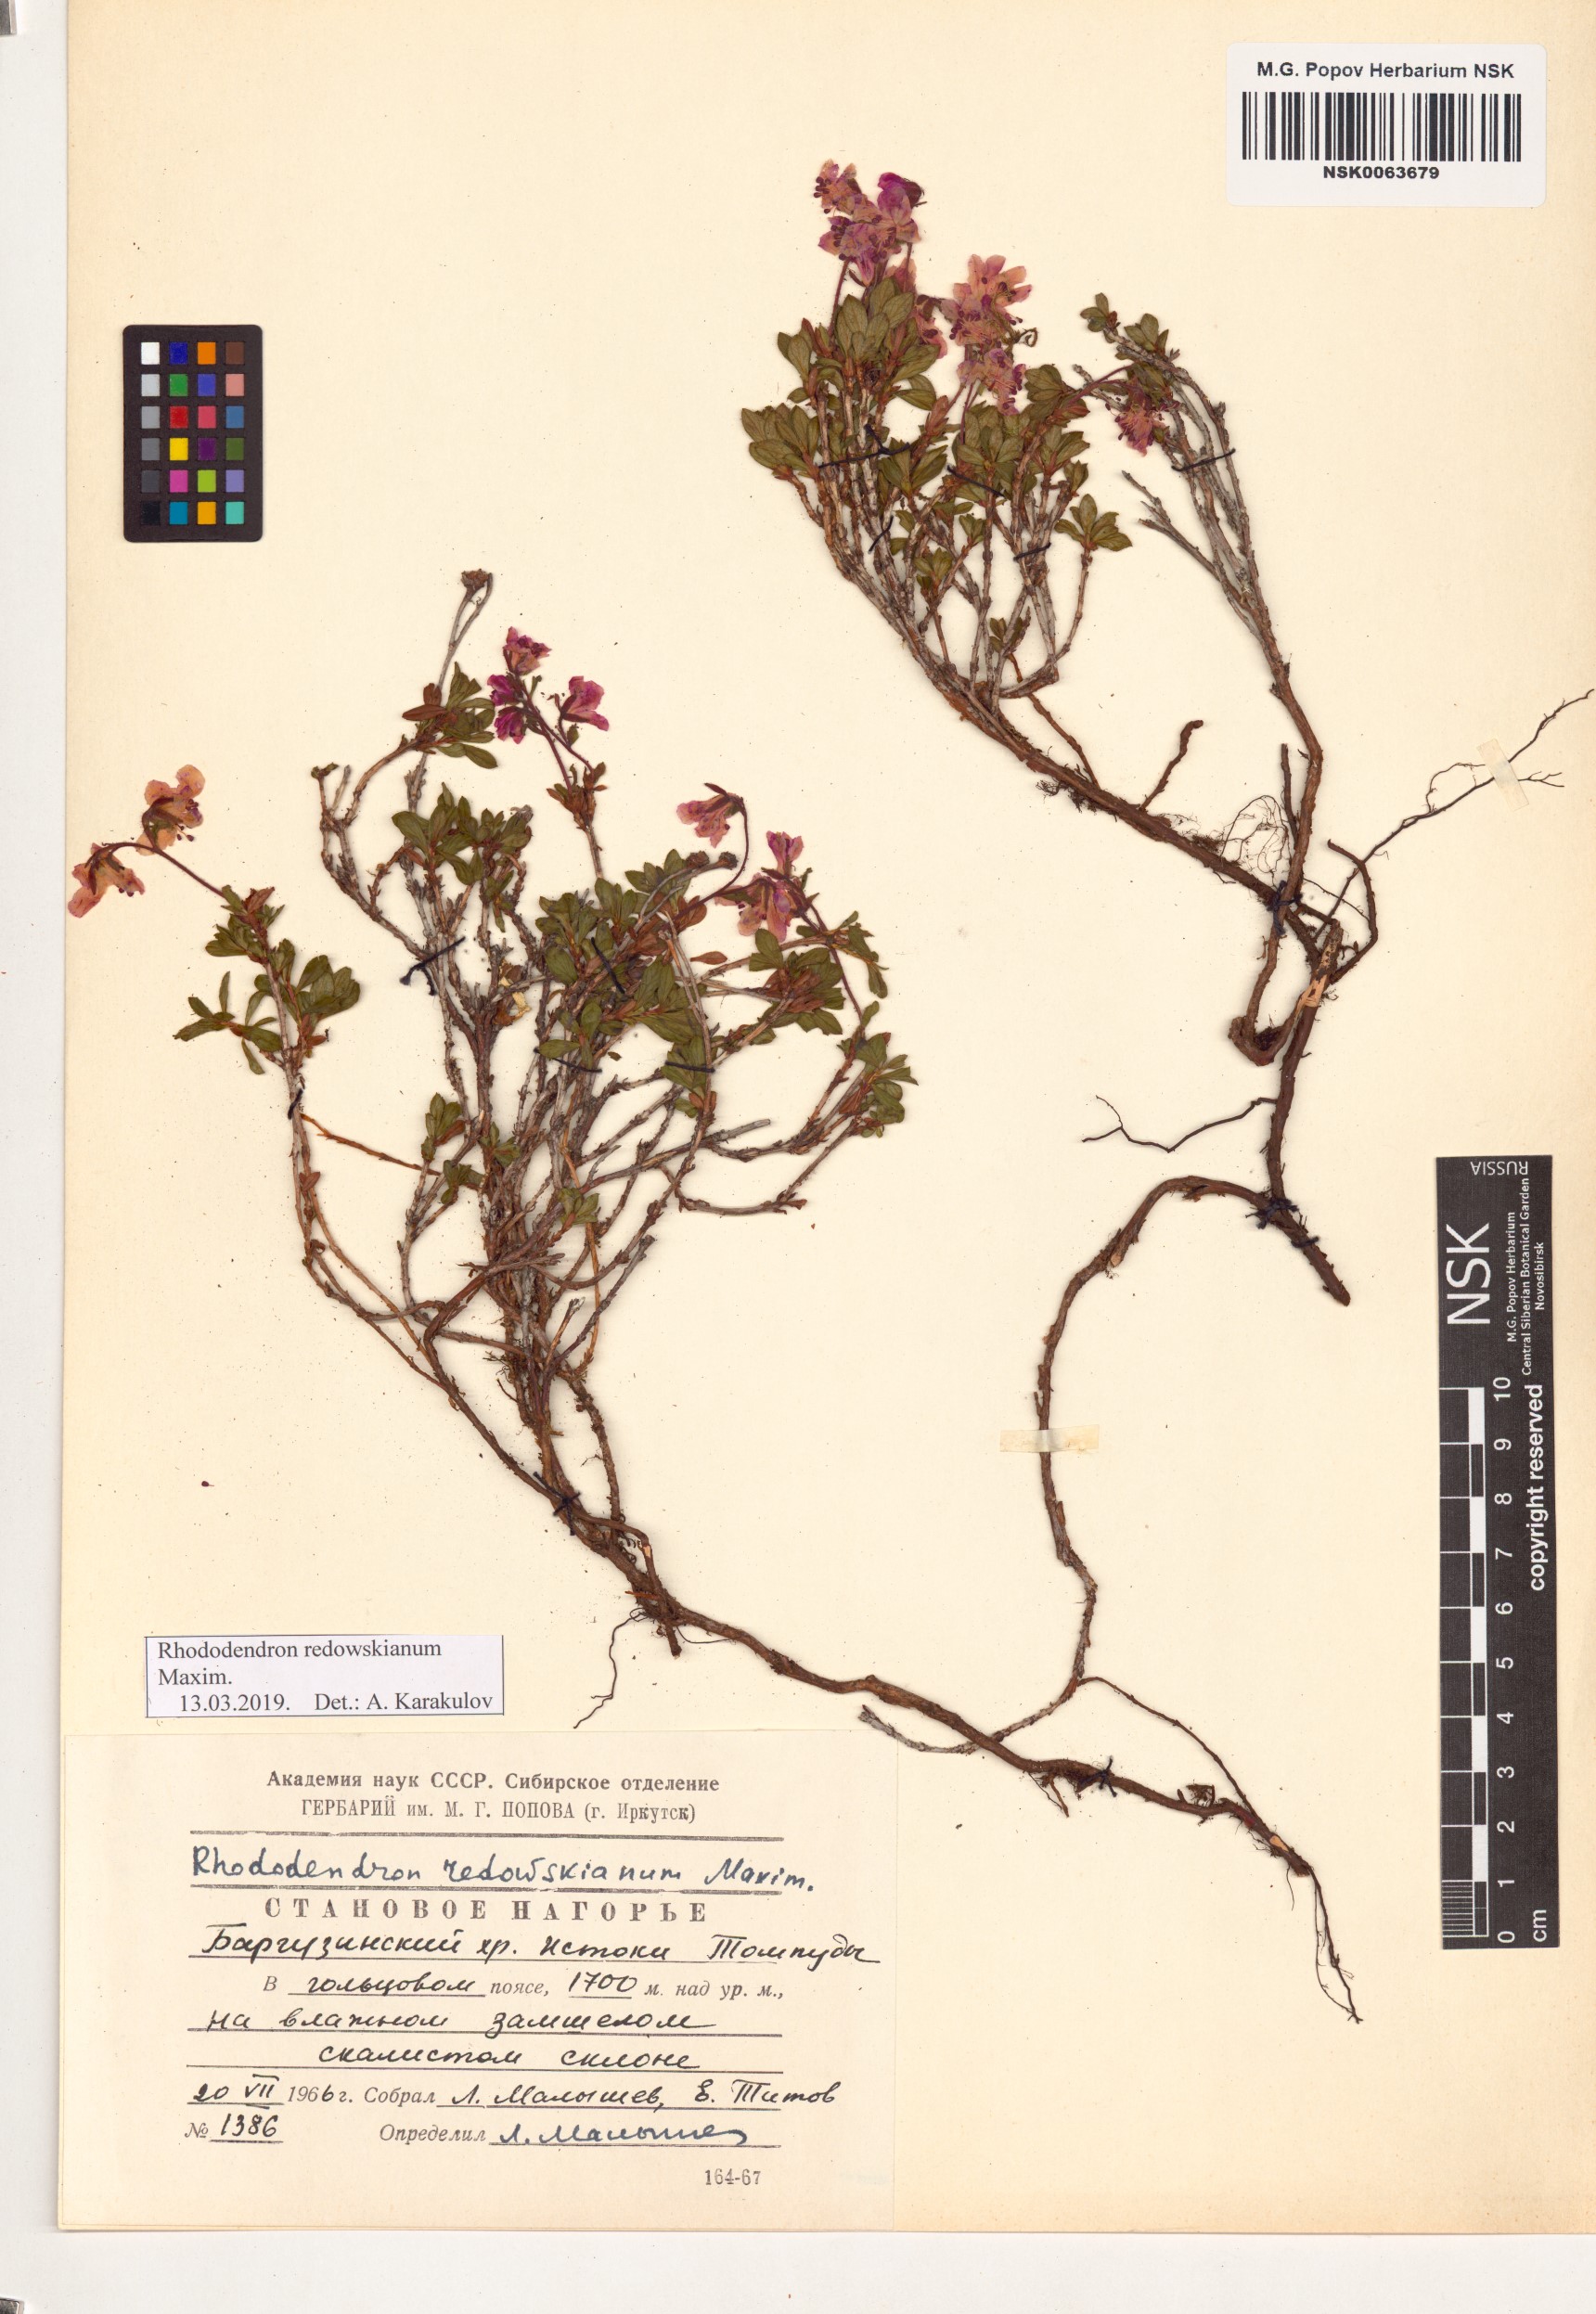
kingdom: Plantae
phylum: Tracheophyta
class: Magnoliopsida
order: Ericales
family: Ericaceae
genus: Rhododendron
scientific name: Rhododendron redowskianum
